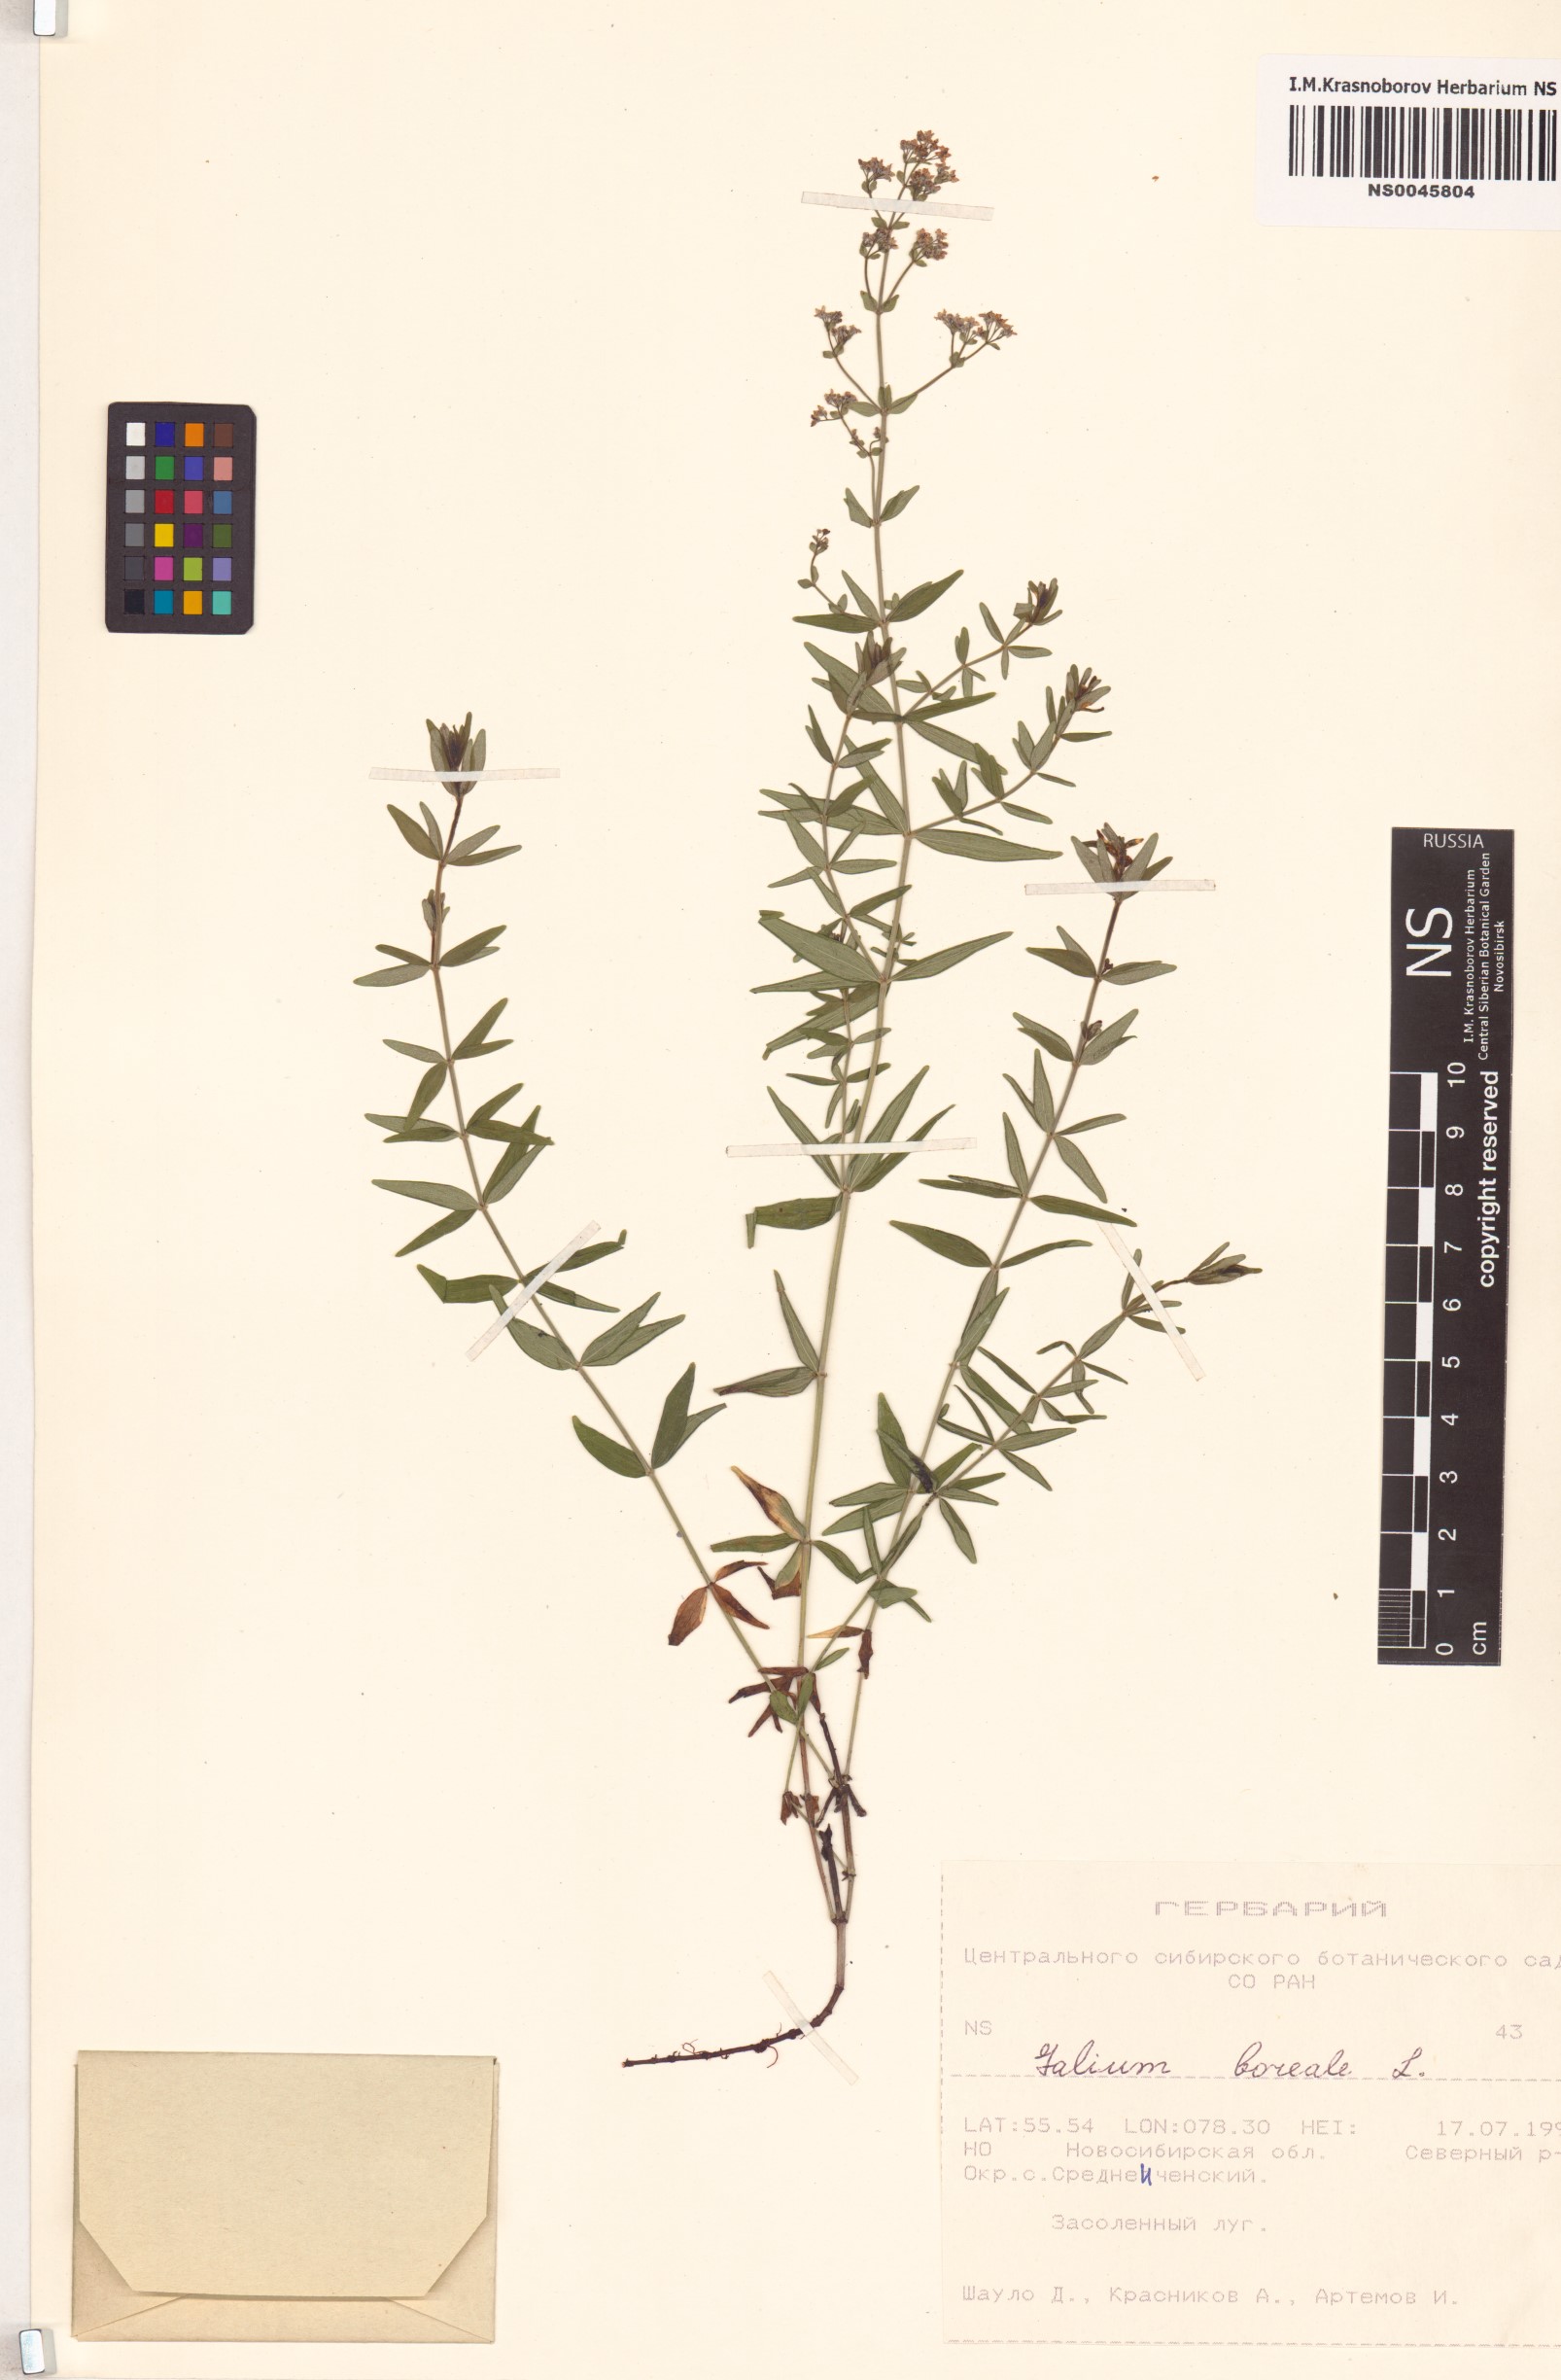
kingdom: Plantae
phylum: Tracheophyta
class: Magnoliopsida
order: Gentianales
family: Rubiaceae
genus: Galium
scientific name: Galium boreale
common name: Northern bedstraw
